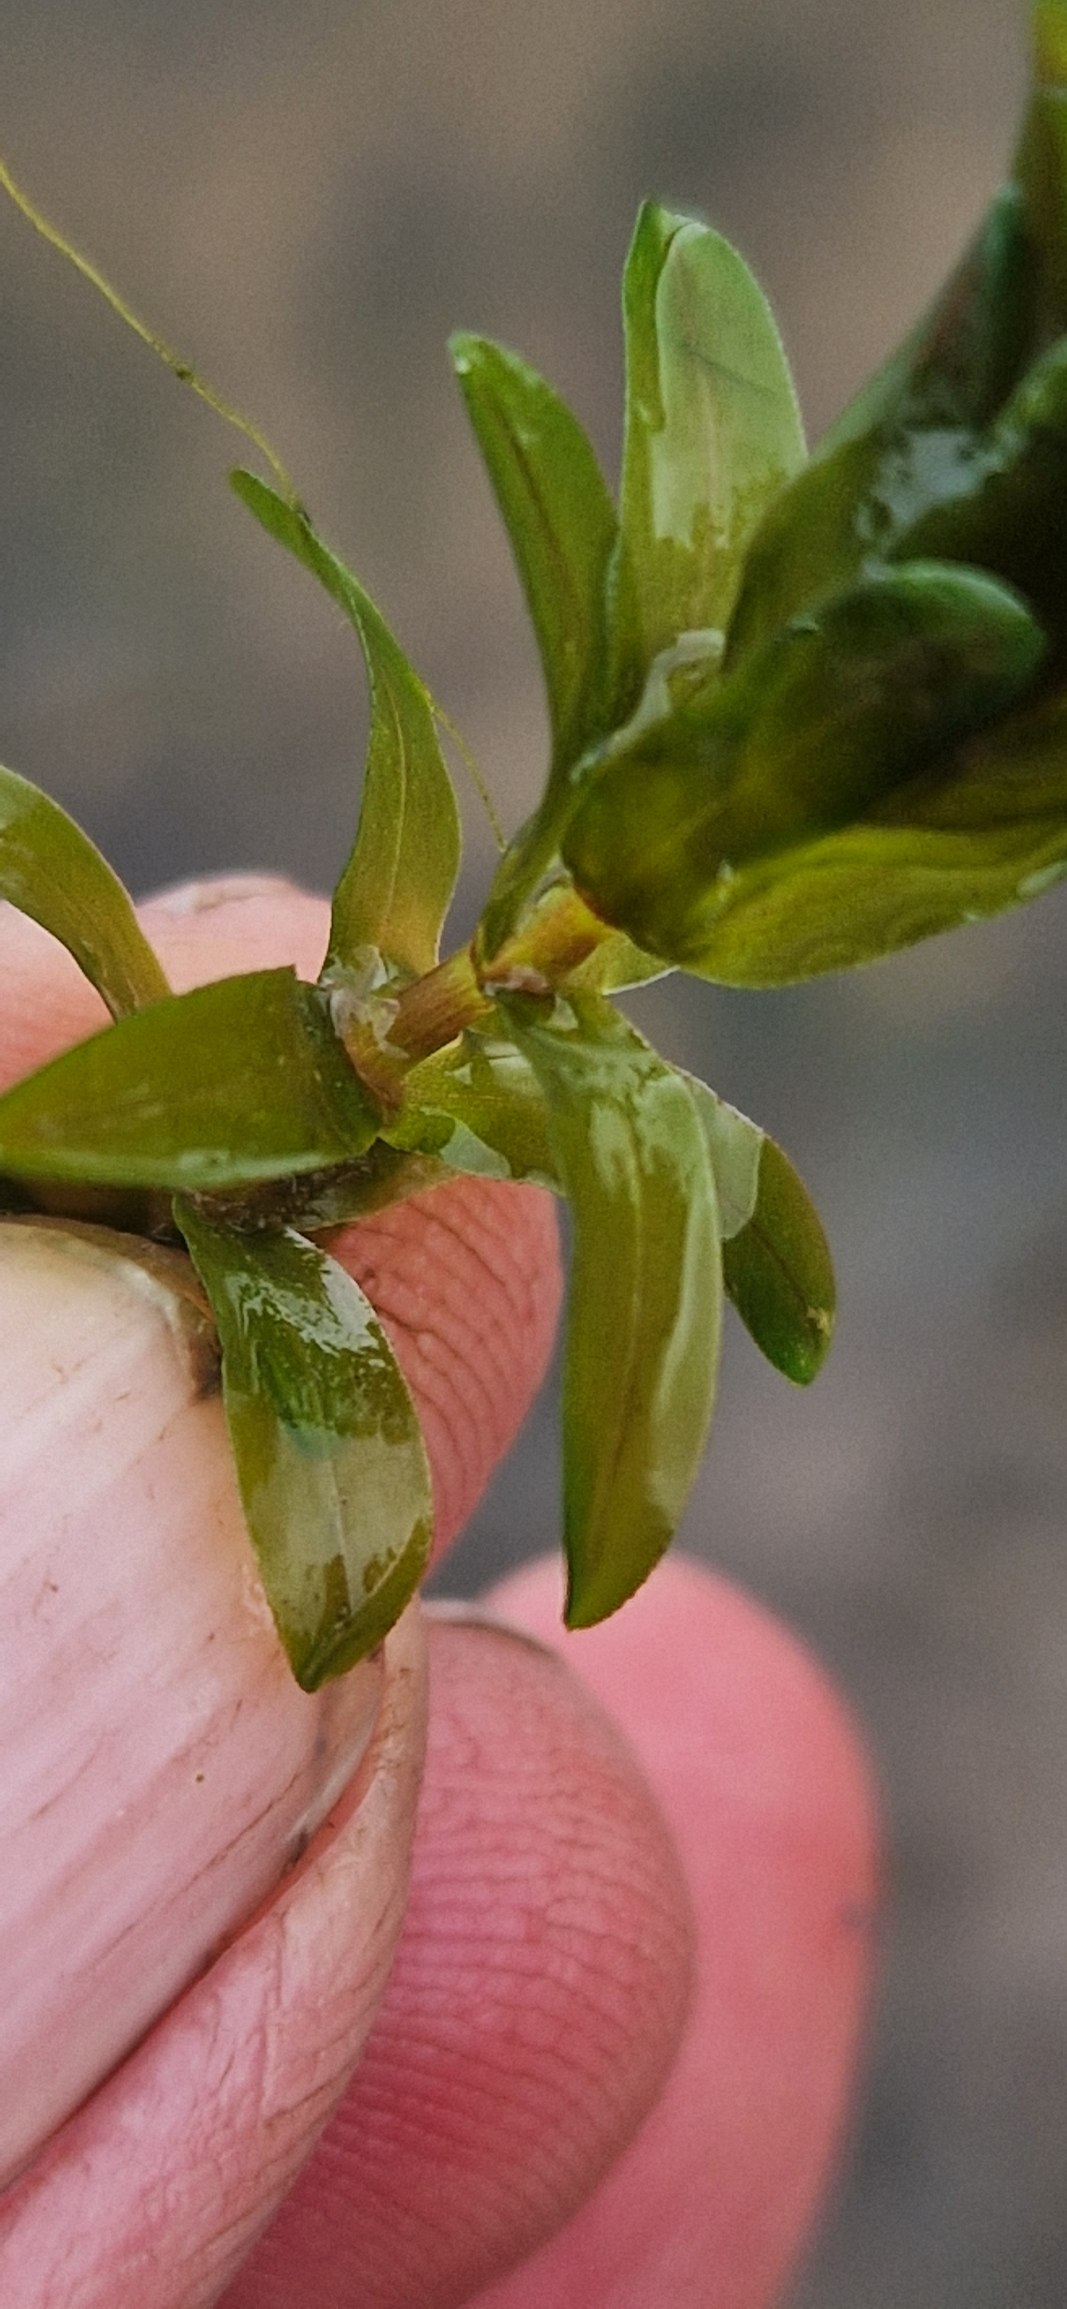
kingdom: Plantae
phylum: Tracheophyta
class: Liliopsida
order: Alismatales
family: Hydrocharitaceae
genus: Elodea
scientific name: Elodea canadensis
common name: Vandpest
